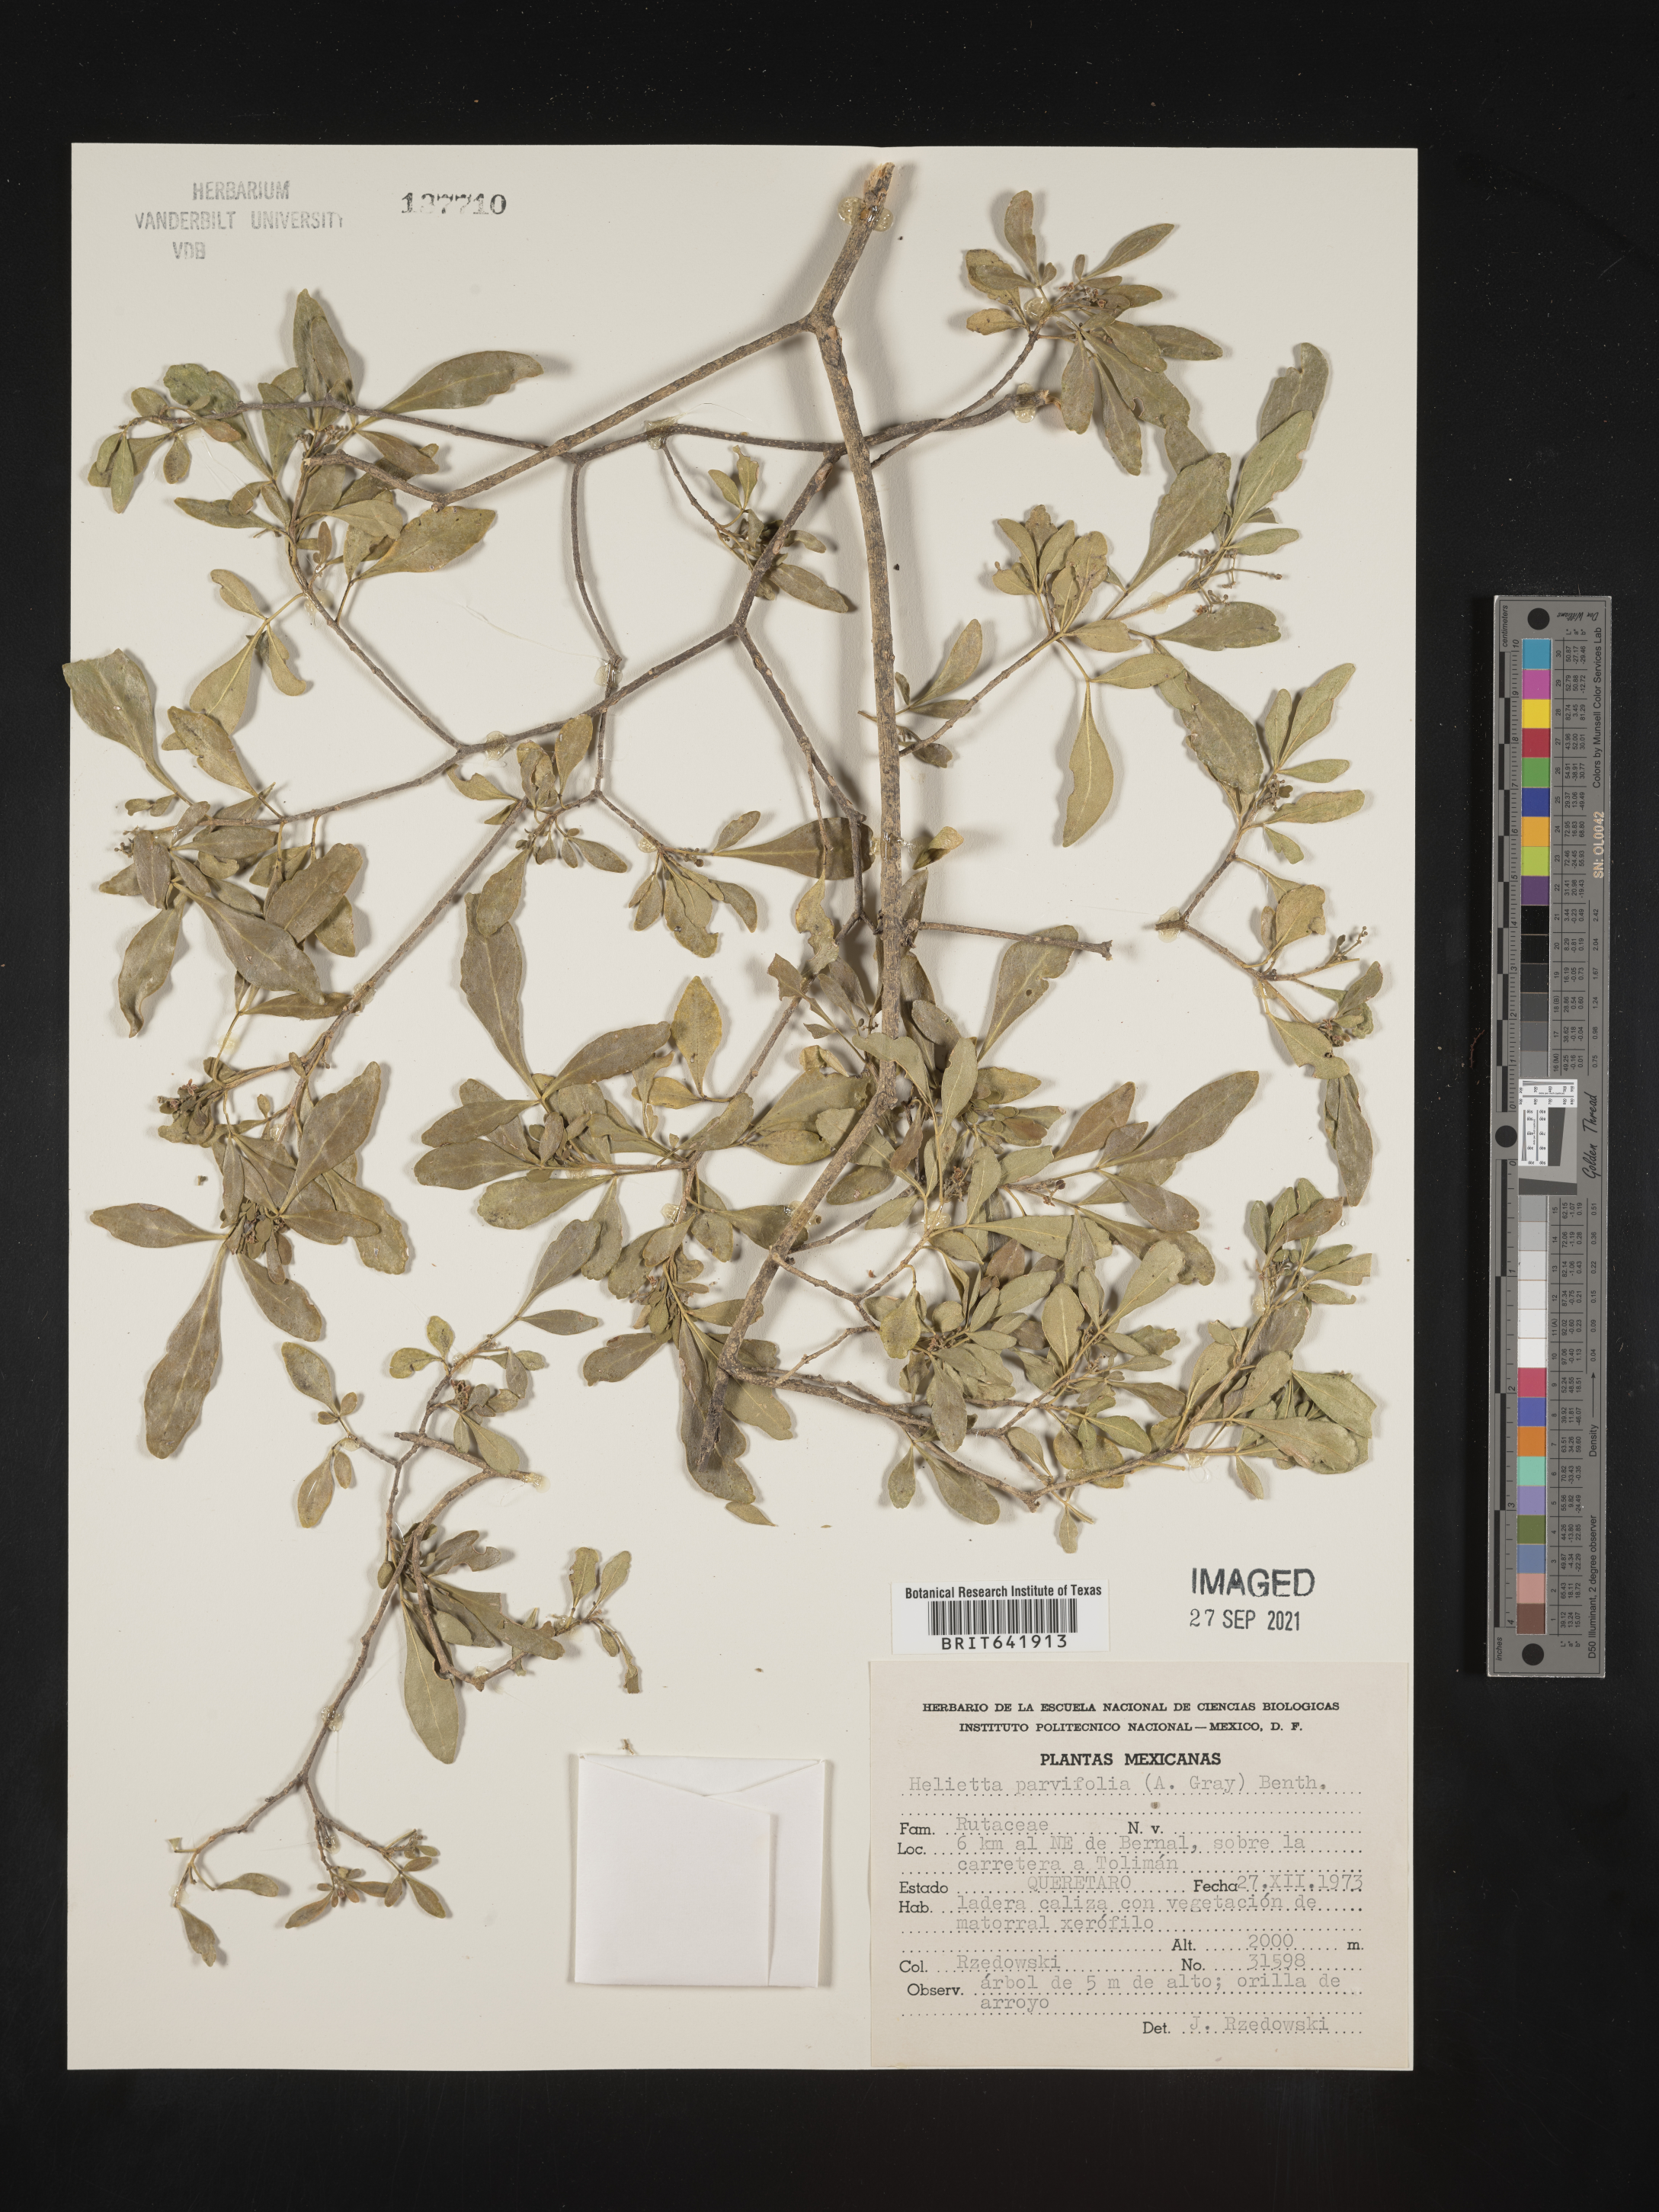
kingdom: Plantae
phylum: Tracheophyta
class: Magnoliopsida
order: Sapindales
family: Rutaceae
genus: Helietta
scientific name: Helietta
